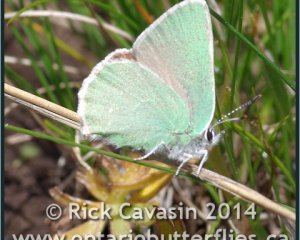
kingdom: Animalia
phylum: Arthropoda
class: Insecta
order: Lepidoptera
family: Lycaenidae
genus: Callophrys
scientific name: Callophrys affinis
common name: Western Green Hairstreak
